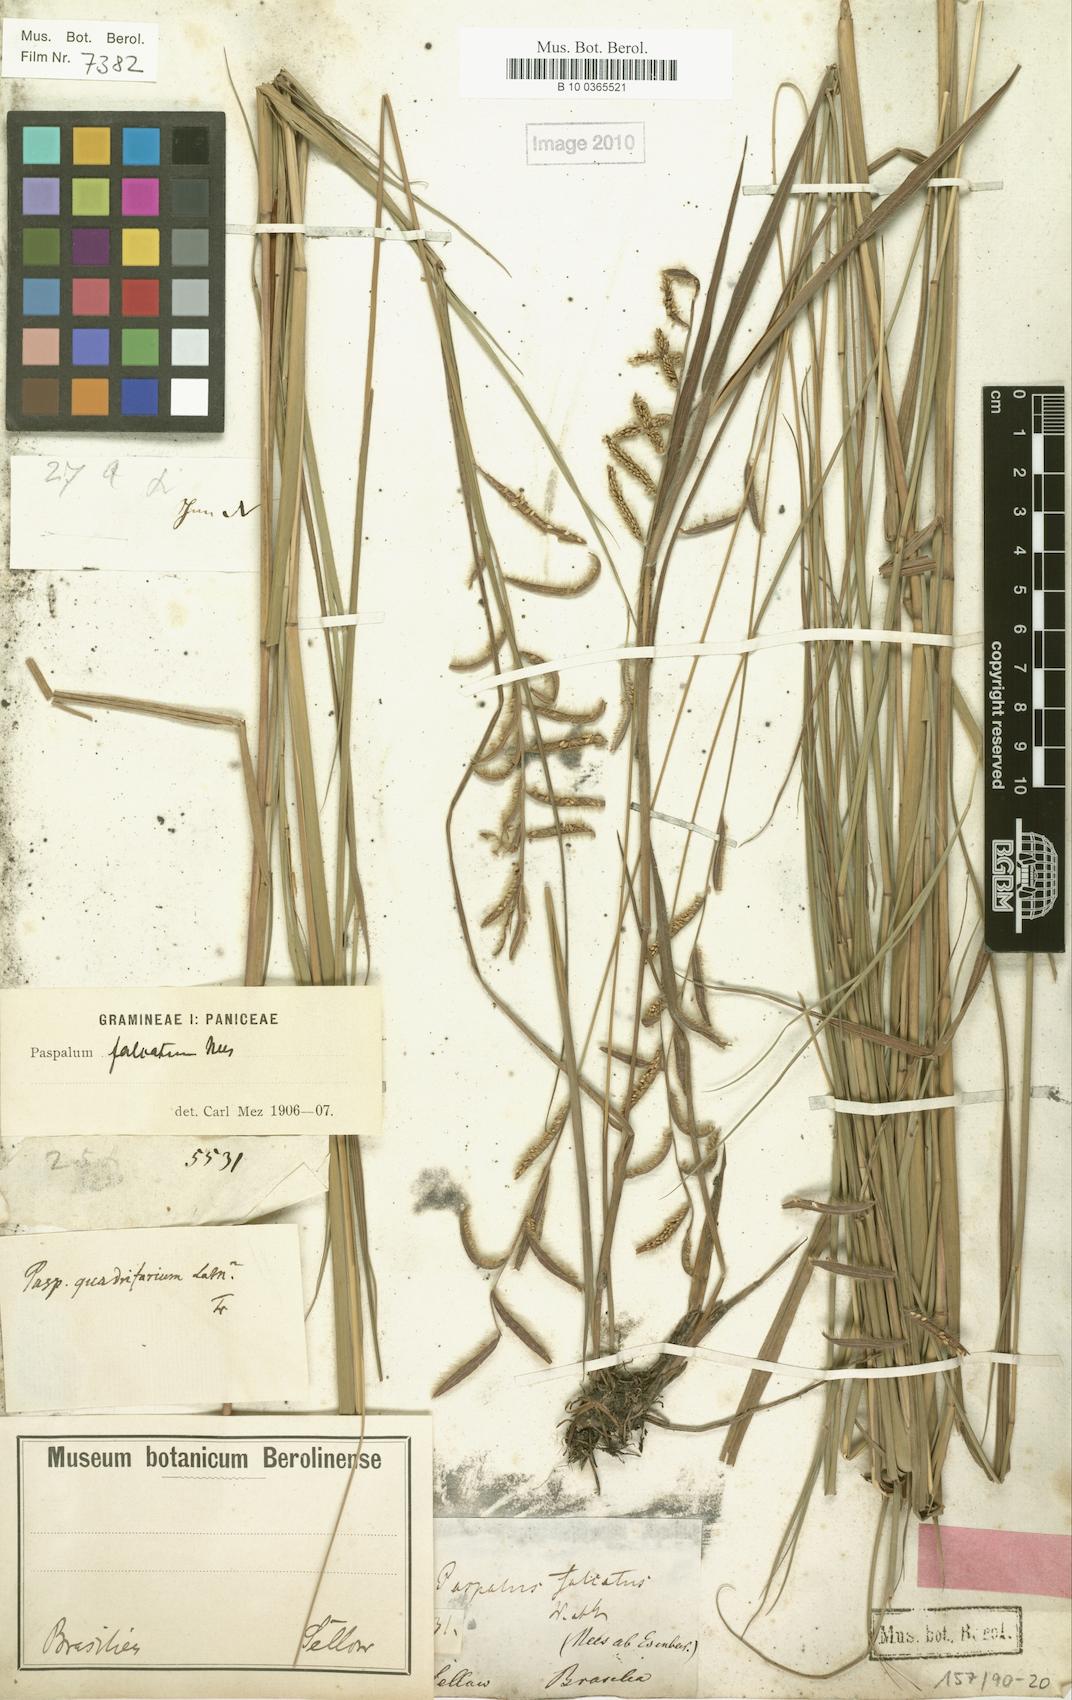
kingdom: Plantae
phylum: Tracheophyta
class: Liliopsida
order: Poales
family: Poaceae
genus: Paspalum
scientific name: Paspalum falcatum
